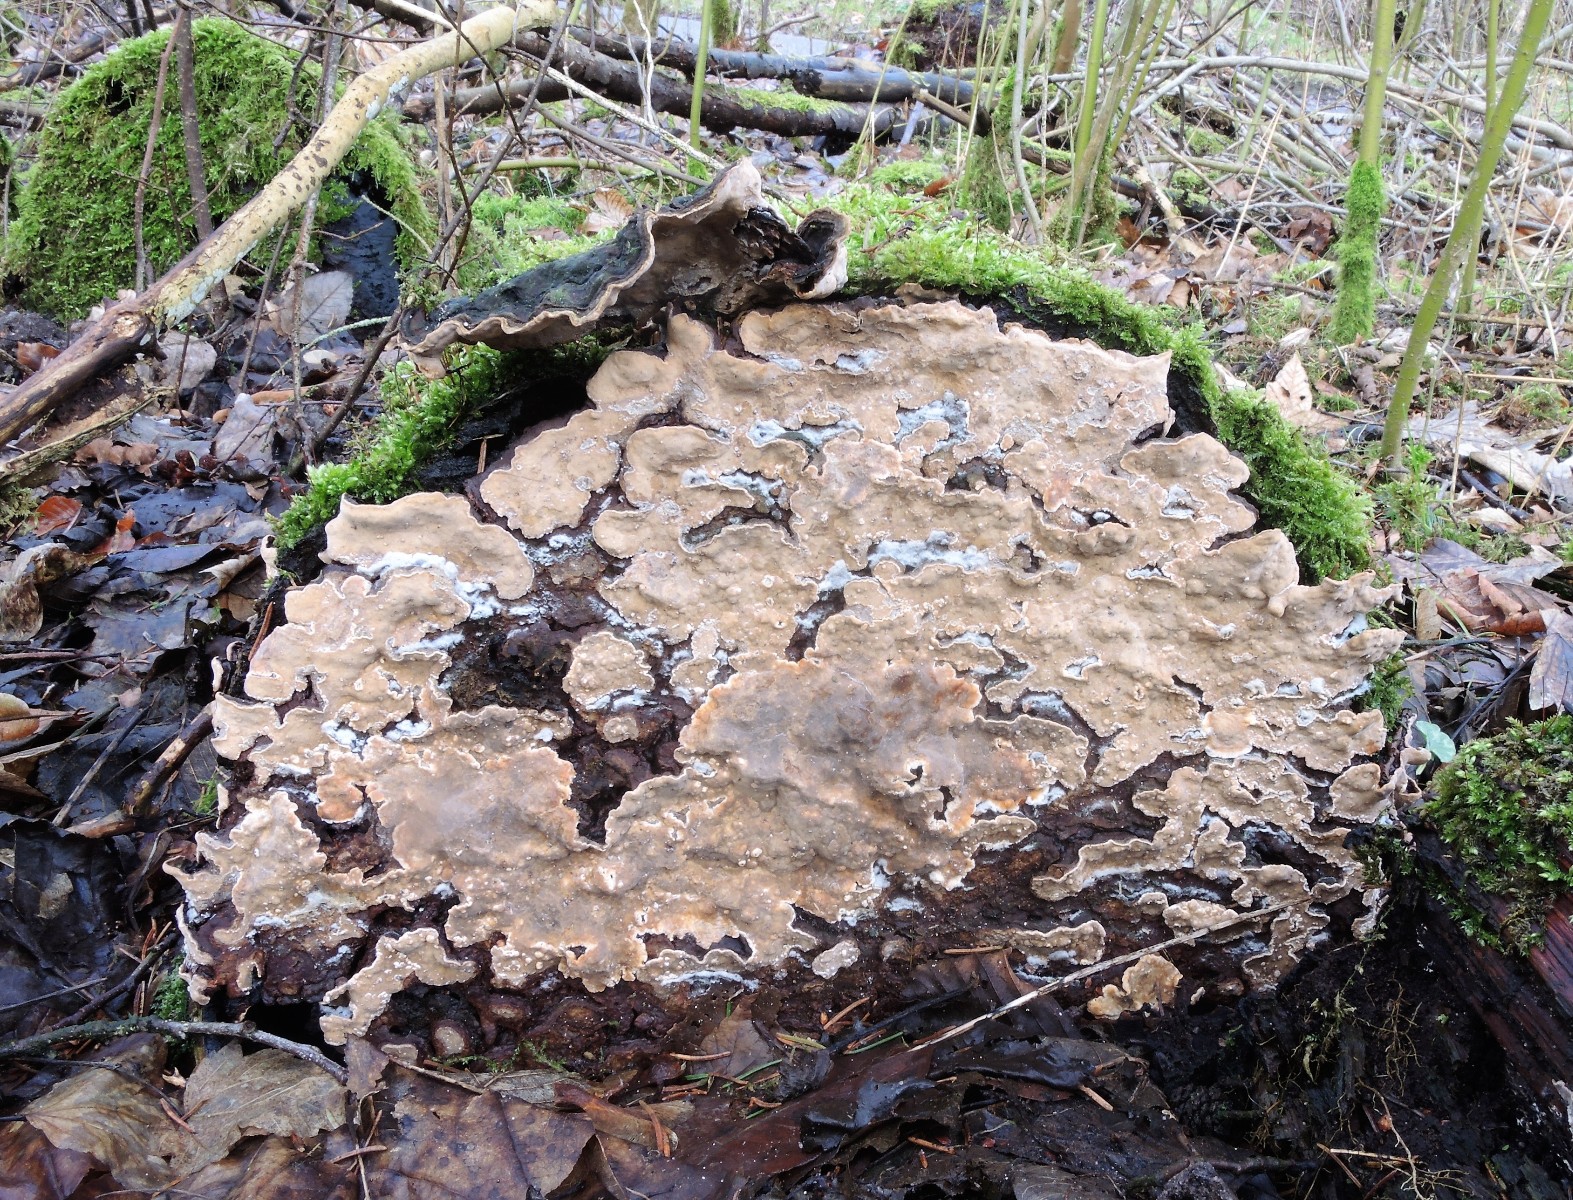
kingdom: Fungi
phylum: Basidiomycota
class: Agaricomycetes
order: Russulales
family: Stereaceae
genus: Stereum
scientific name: Stereum rugosum
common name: rynket lædersvamp
